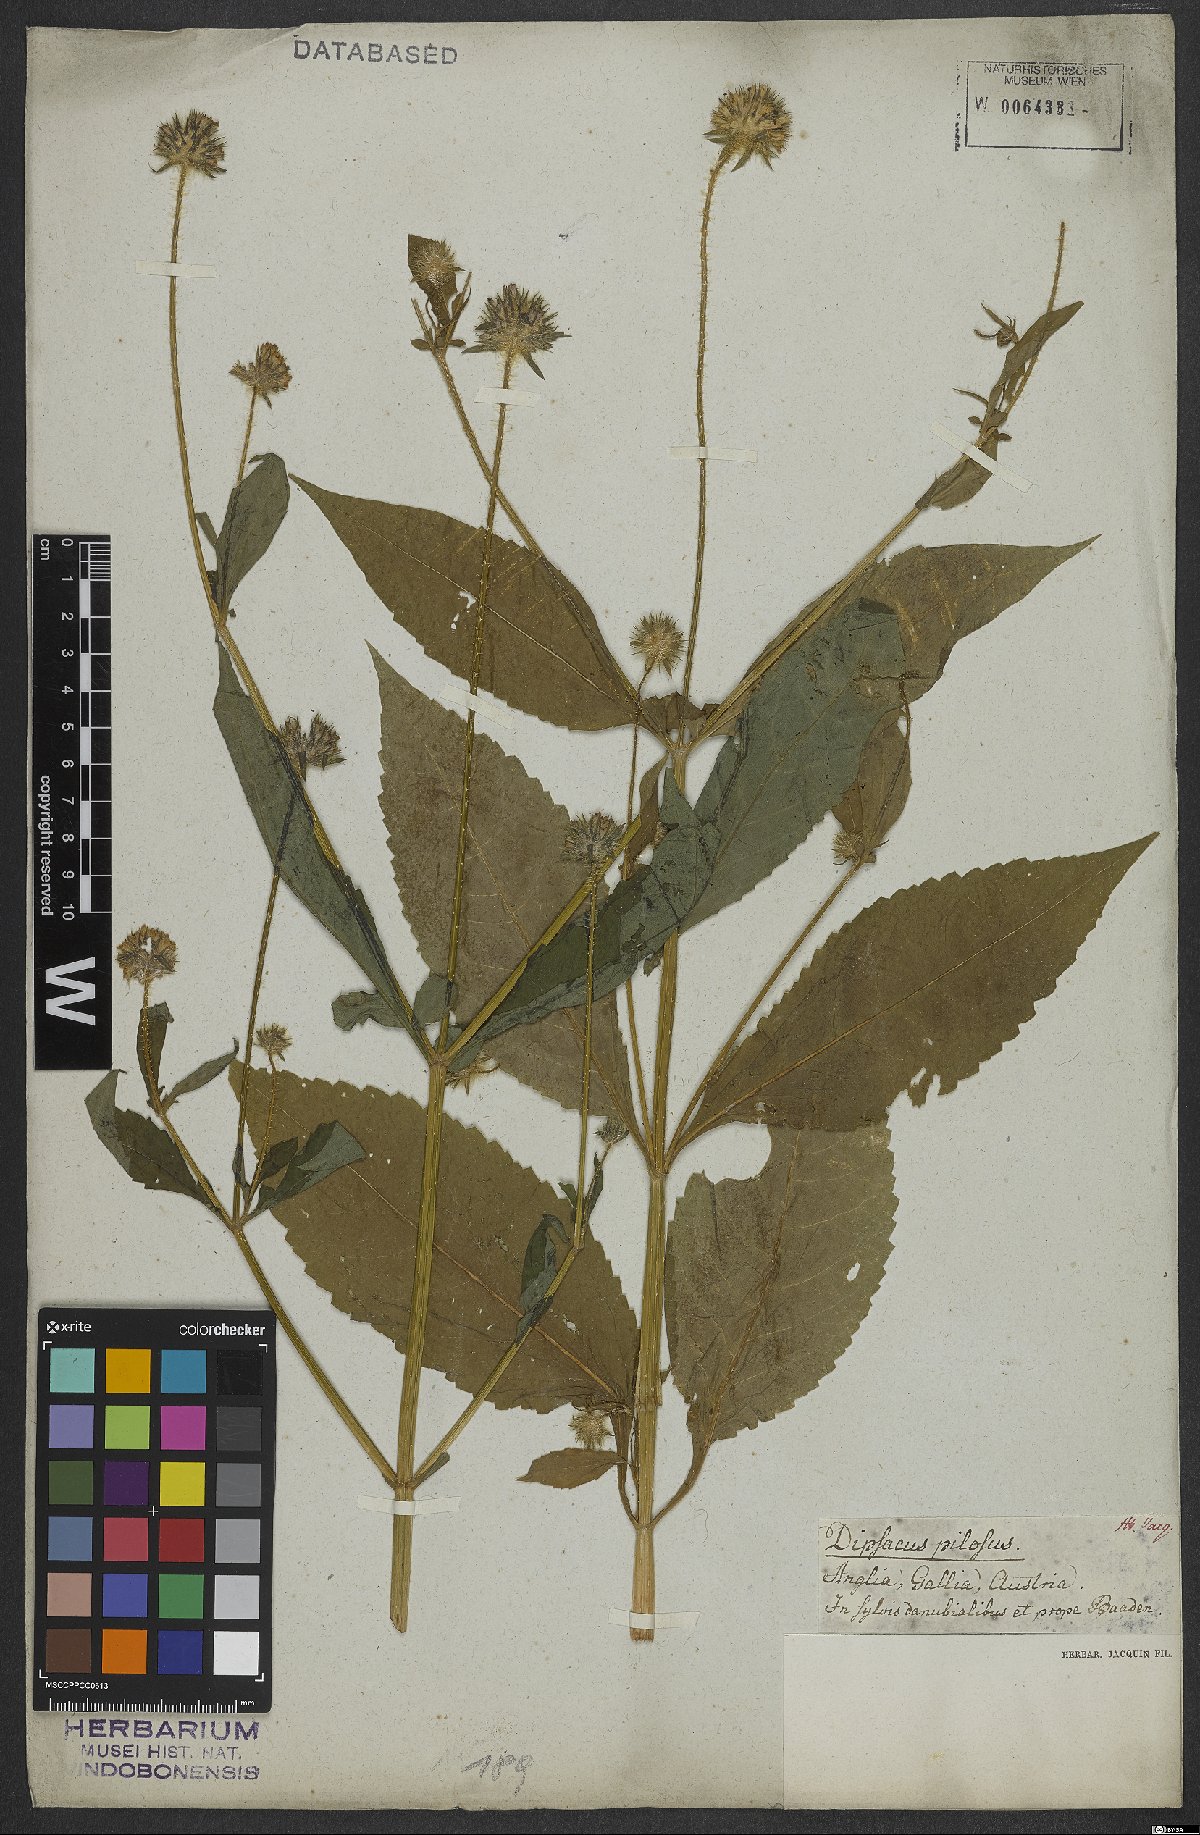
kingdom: Plantae
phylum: Tracheophyta
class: Magnoliopsida
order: Dipsacales
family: Caprifoliaceae
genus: Dipsacus
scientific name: Dipsacus pilosus
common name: Small teasel
